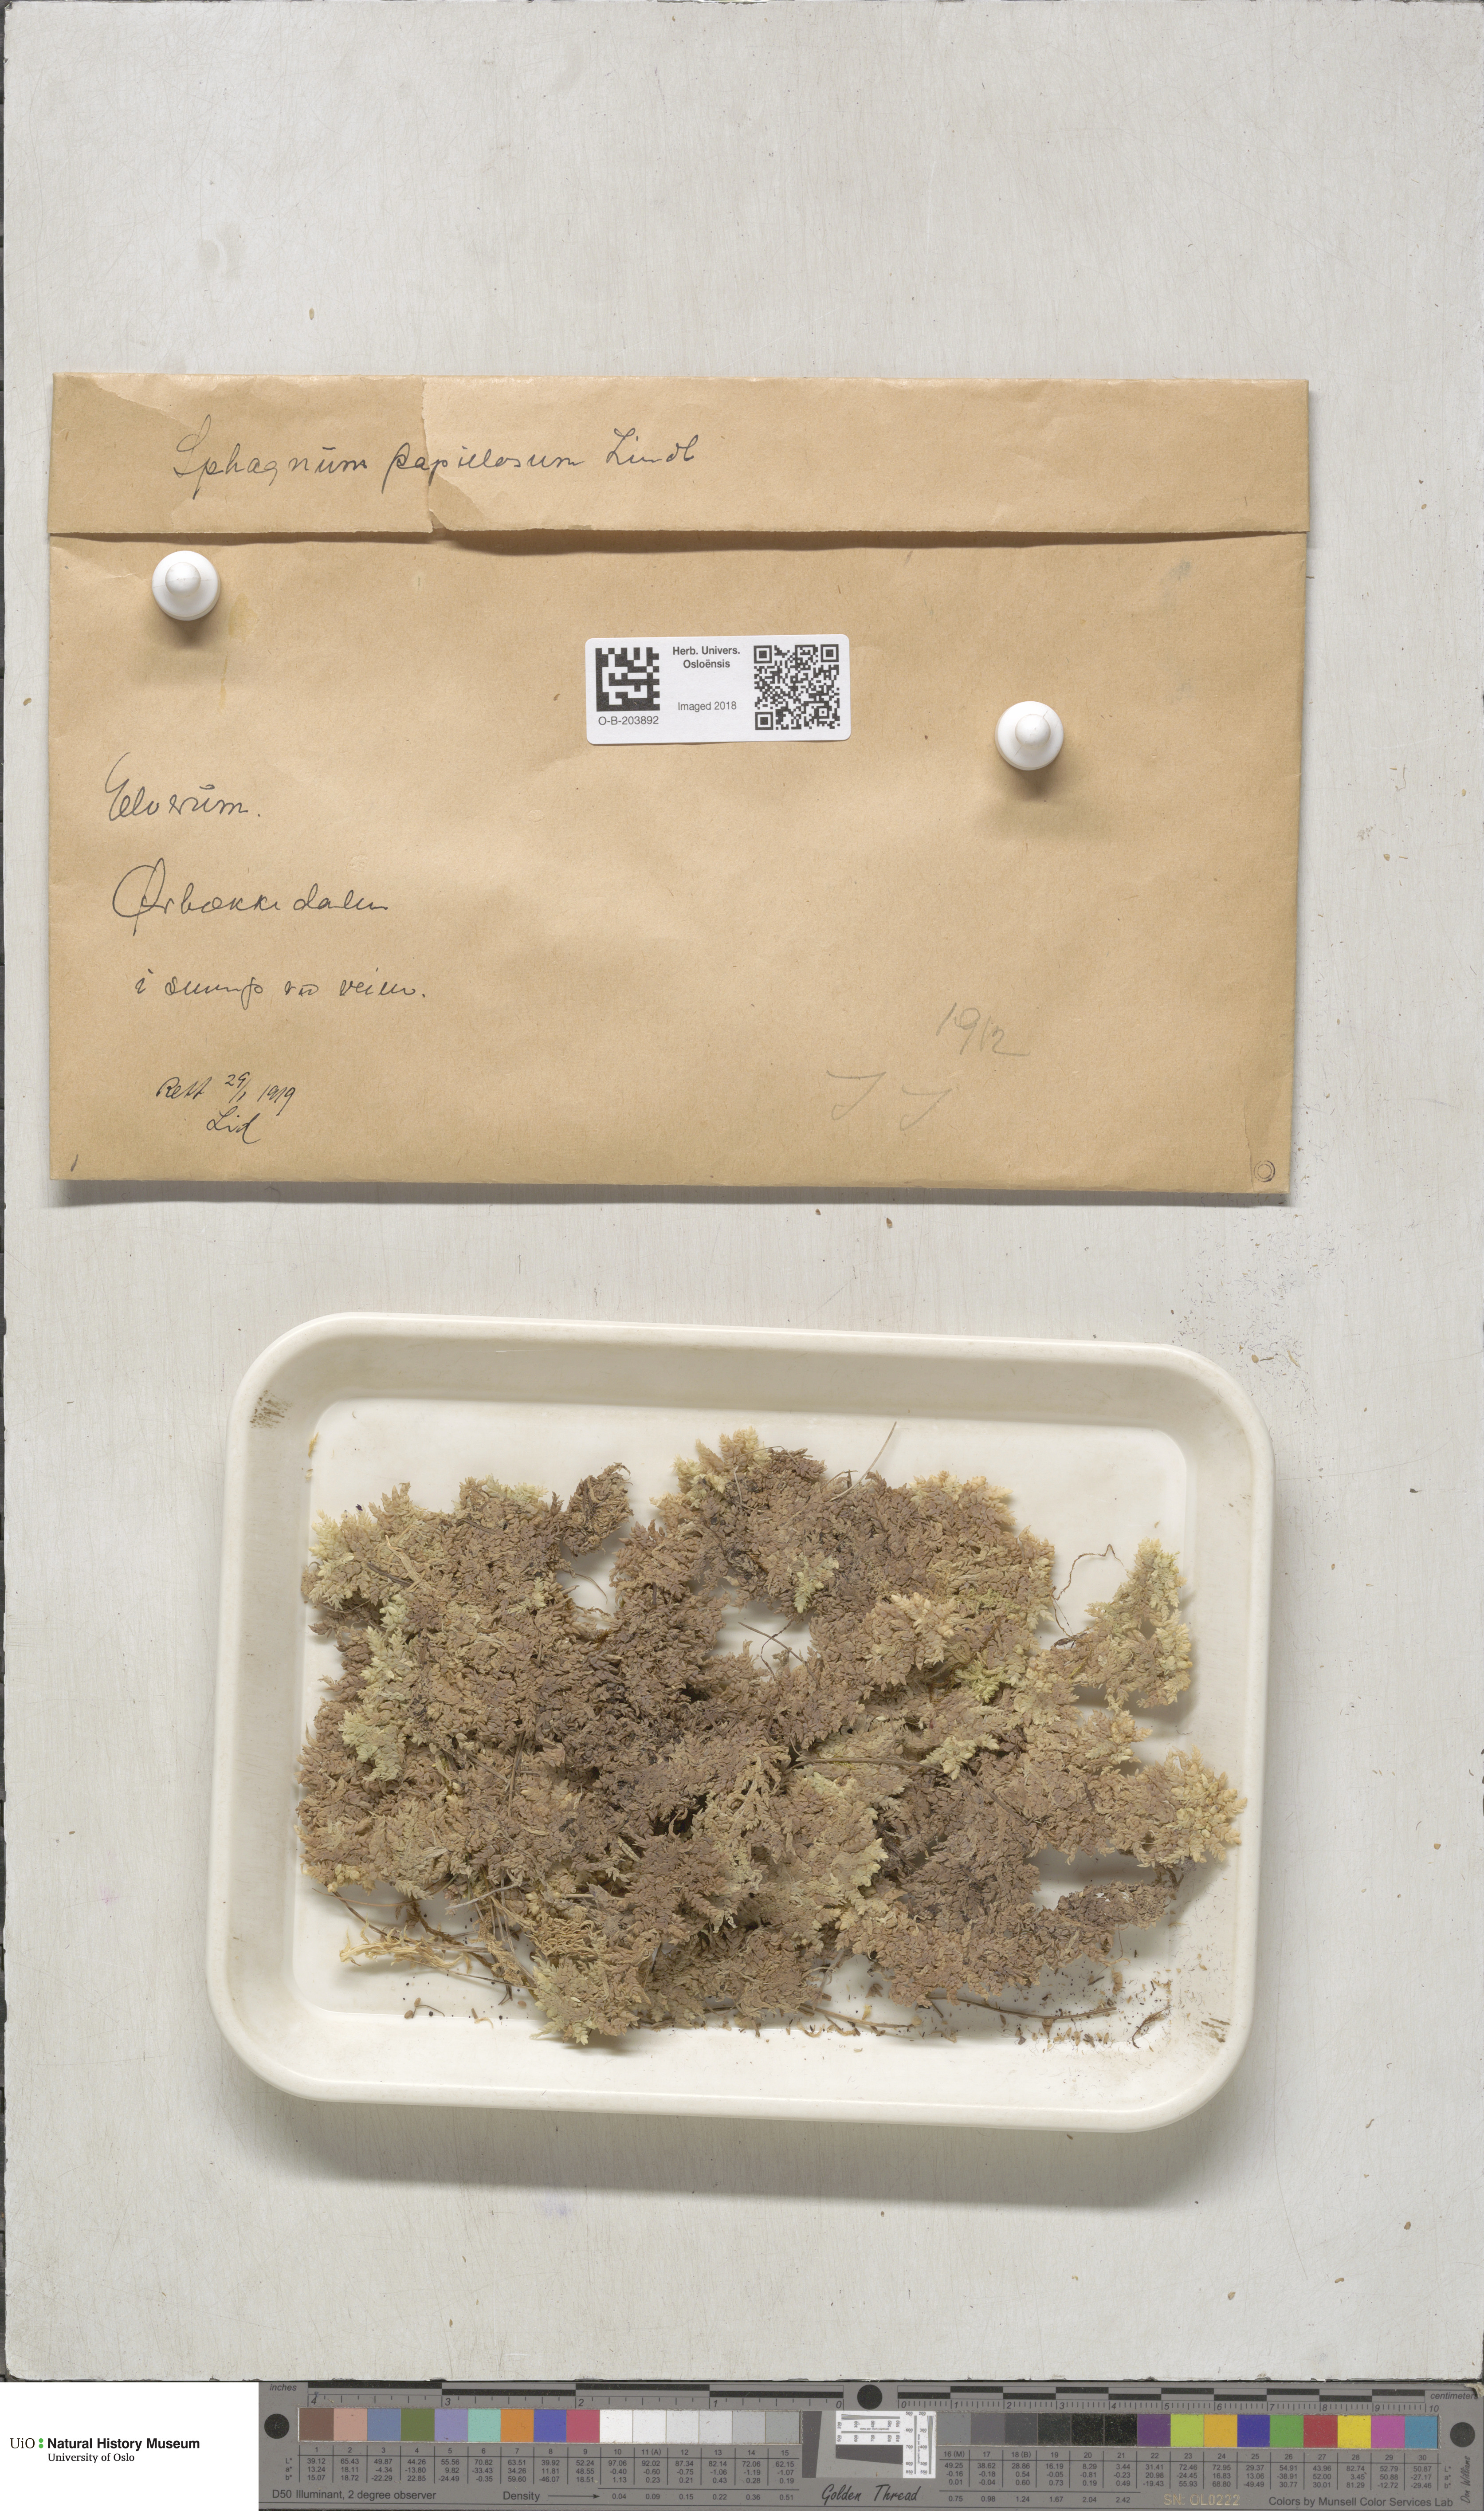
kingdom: Plantae
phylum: Bryophyta
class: Sphagnopsida
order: Sphagnales
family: Sphagnaceae
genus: Sphagnum
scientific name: Sphagnum papillosum
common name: Papillose peat moss
